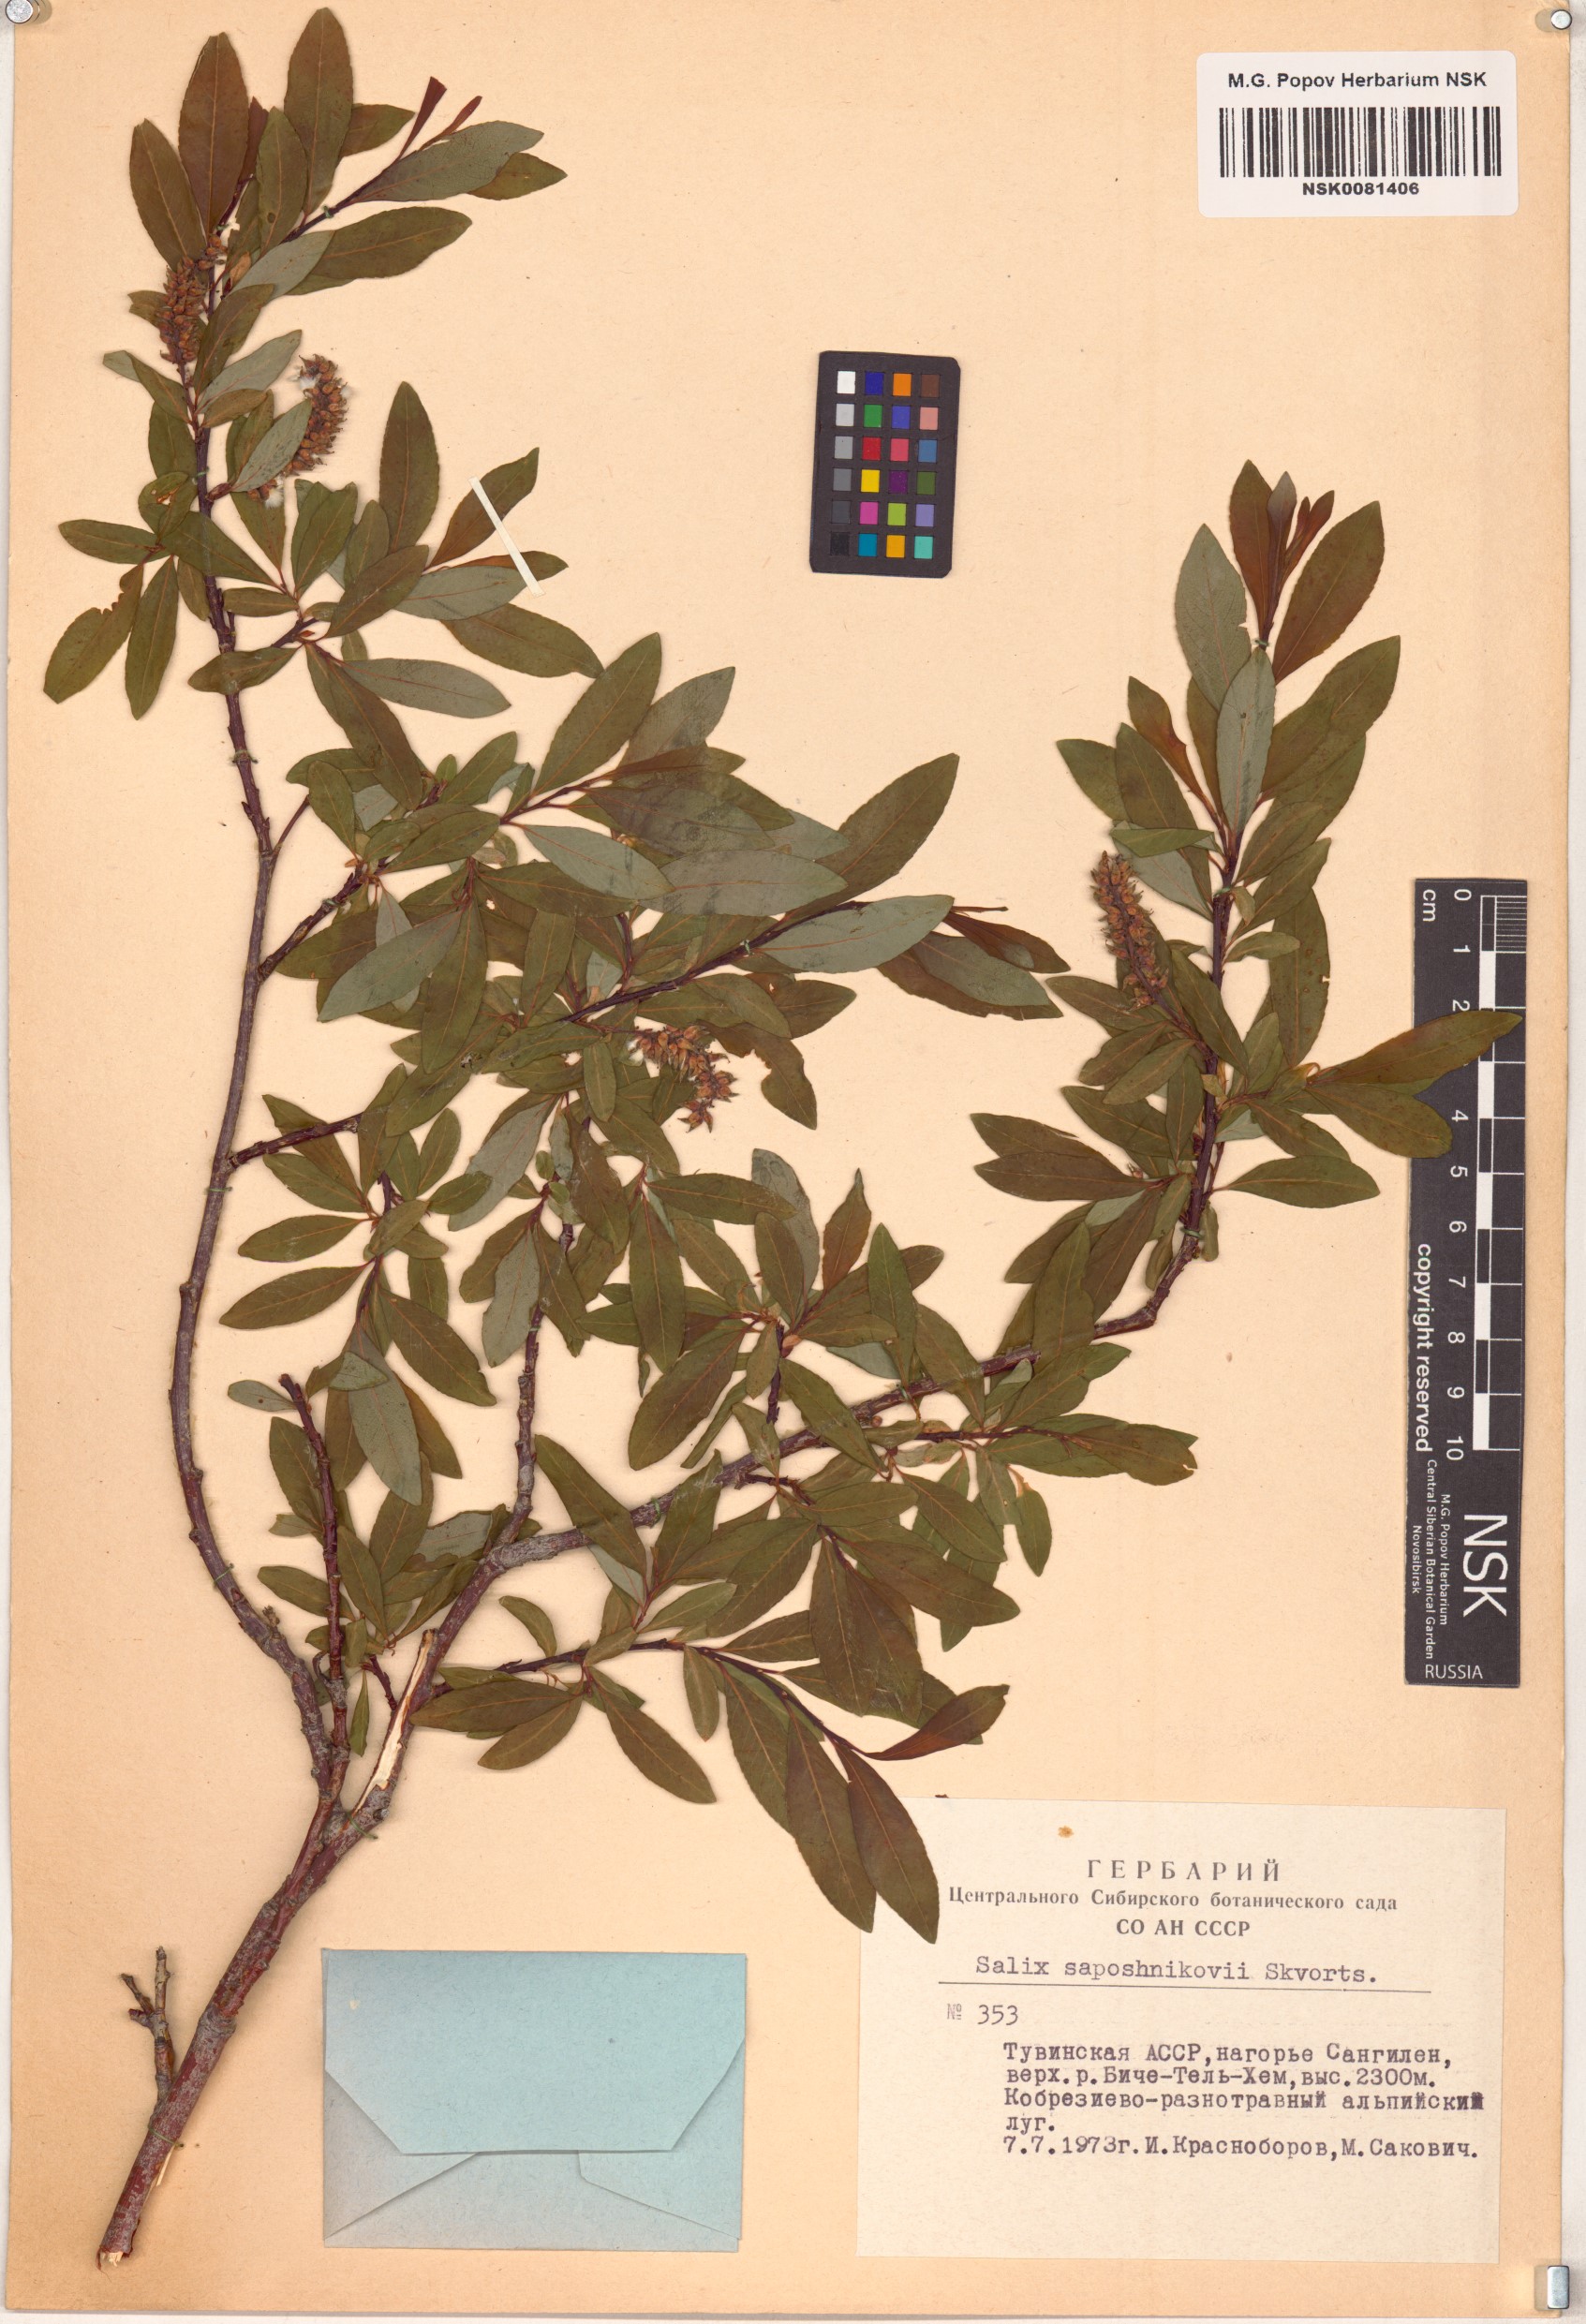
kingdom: Plantae
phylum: Tracheophyta
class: Magnoliopsida
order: Malpighiales
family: Salicaceae
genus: Salix
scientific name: Salix saposhnikovii
